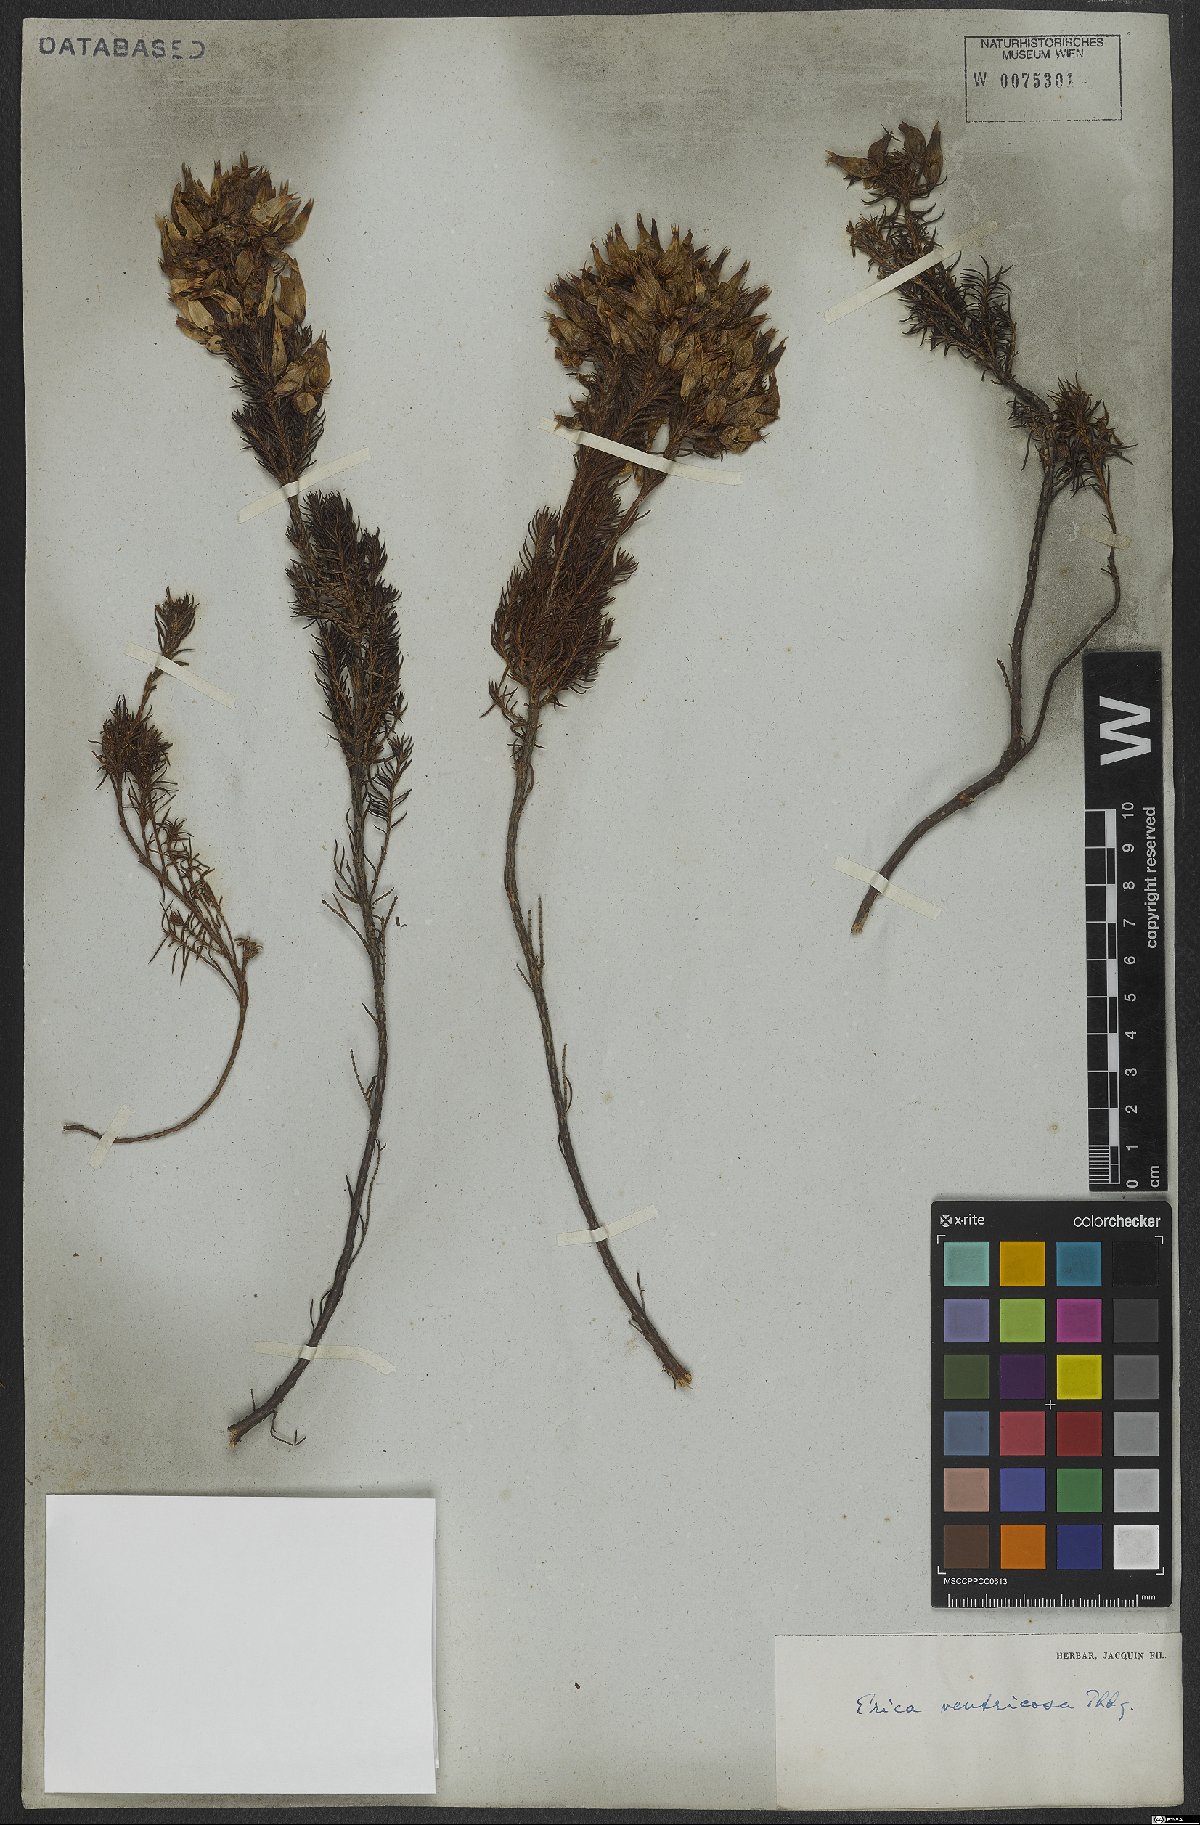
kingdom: Plantae
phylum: Tracheophyta
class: Magnoliopsida
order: Ericales
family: Ericaceae
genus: Erica
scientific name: Erica ventricosa
